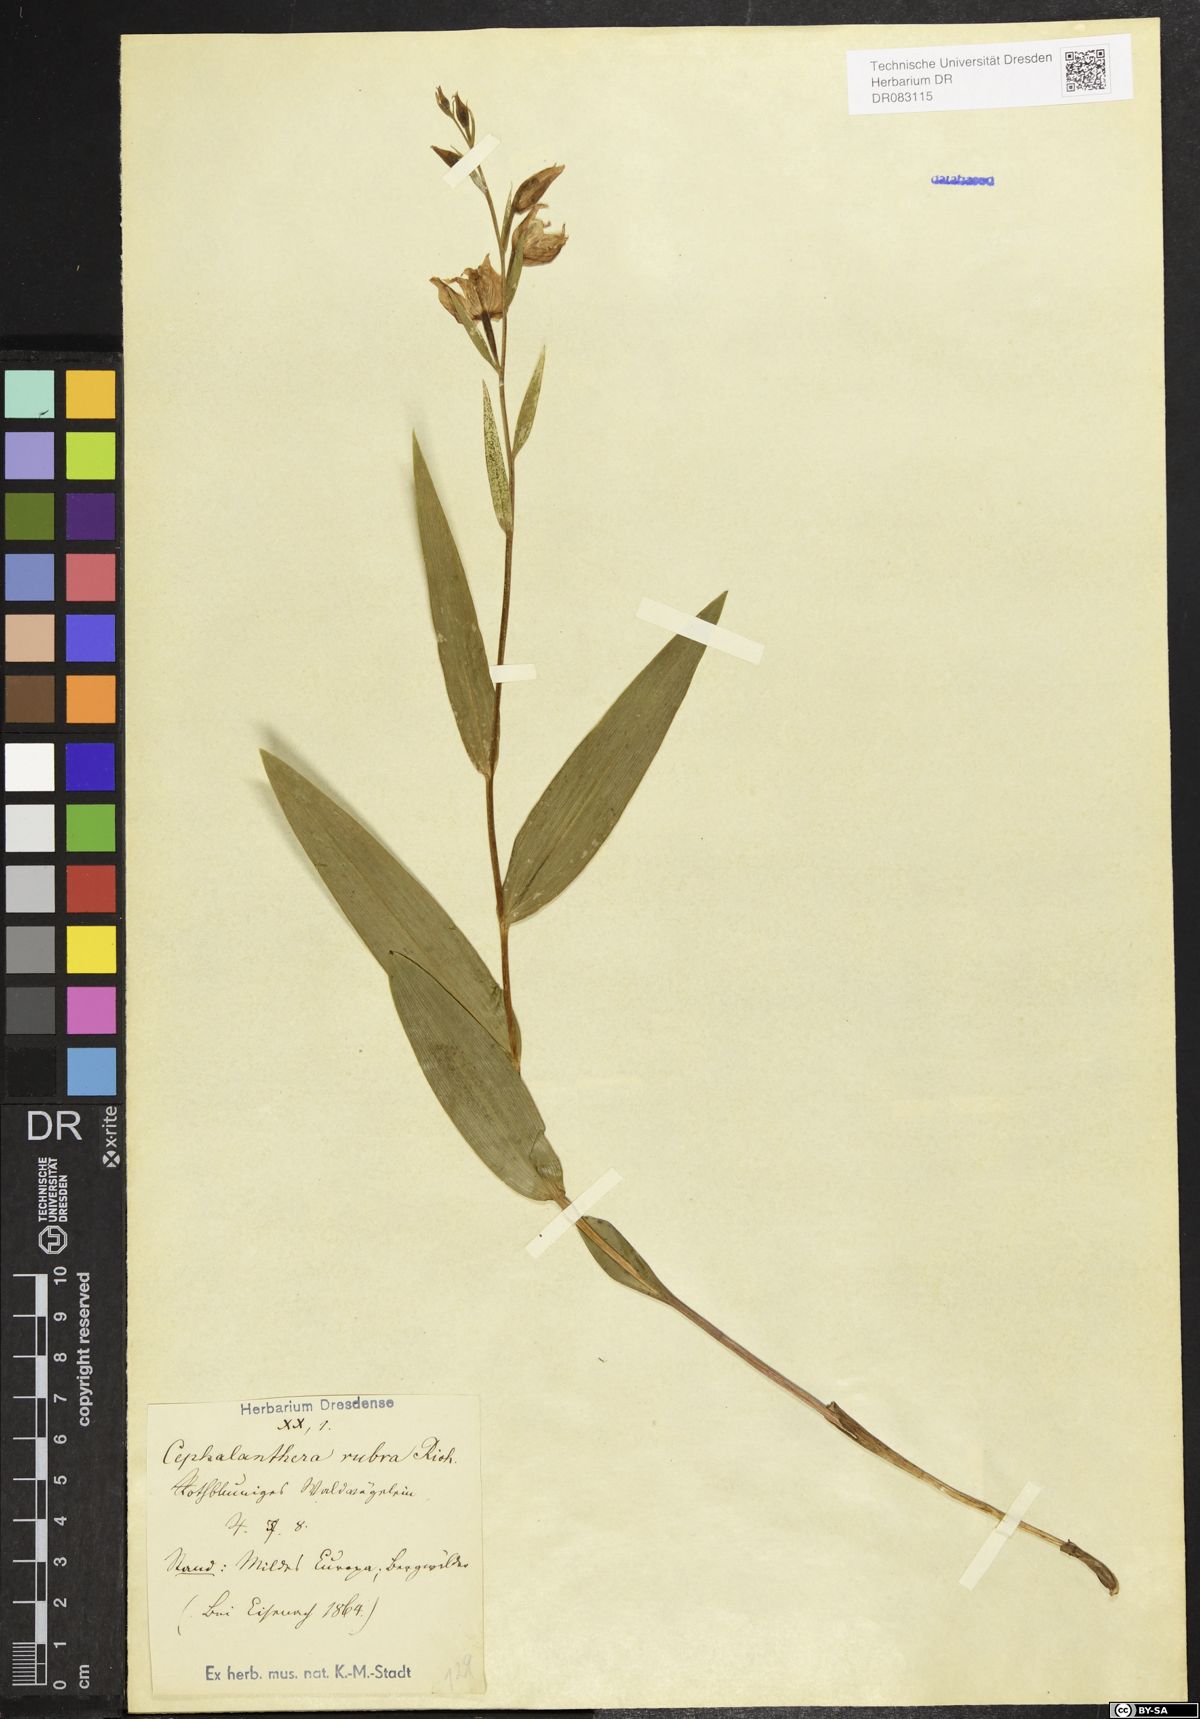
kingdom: Plantae
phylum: Tracheophyta
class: Liliopsida
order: Asparagales
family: Orchidaceae
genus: Cephalanthera
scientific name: Cephalanthera rubra
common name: Red helleborine
